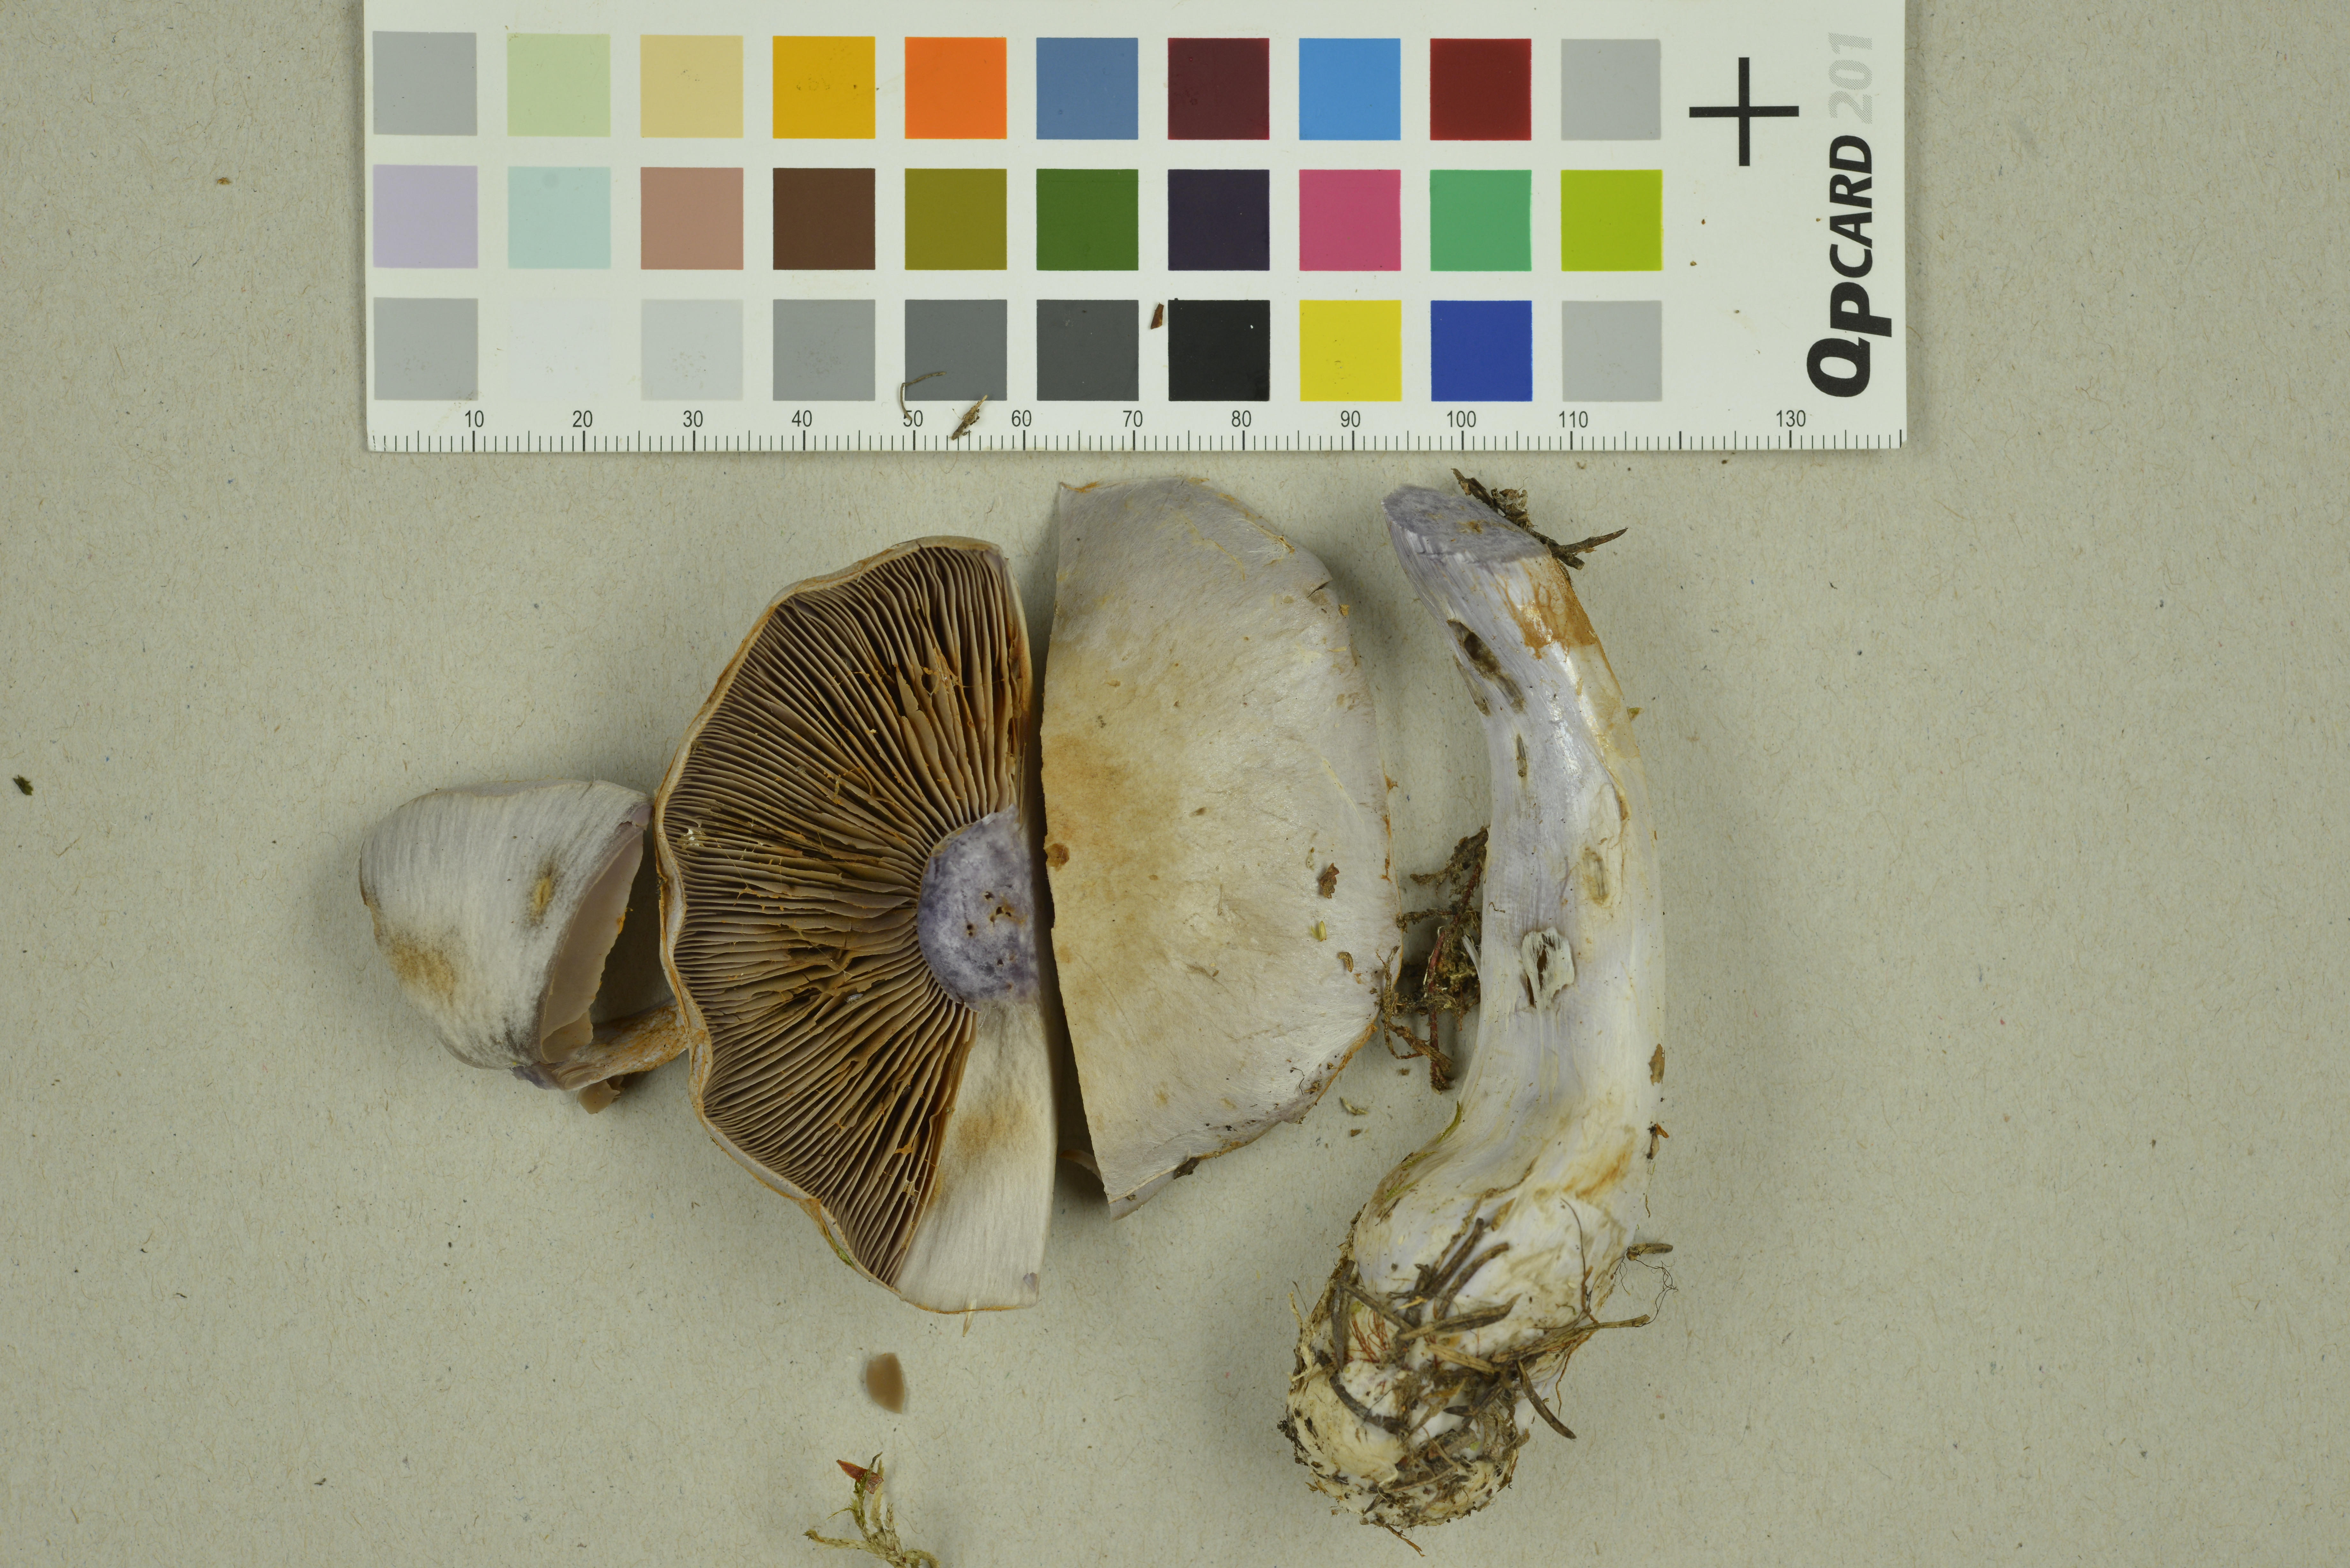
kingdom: Fungi
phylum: Basidiomycota
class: Agaricomycetes
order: Agaricales
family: Cortinariaceae
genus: Cortinarius
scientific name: Cortinarius camphoratus
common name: Goatcheese webcap
